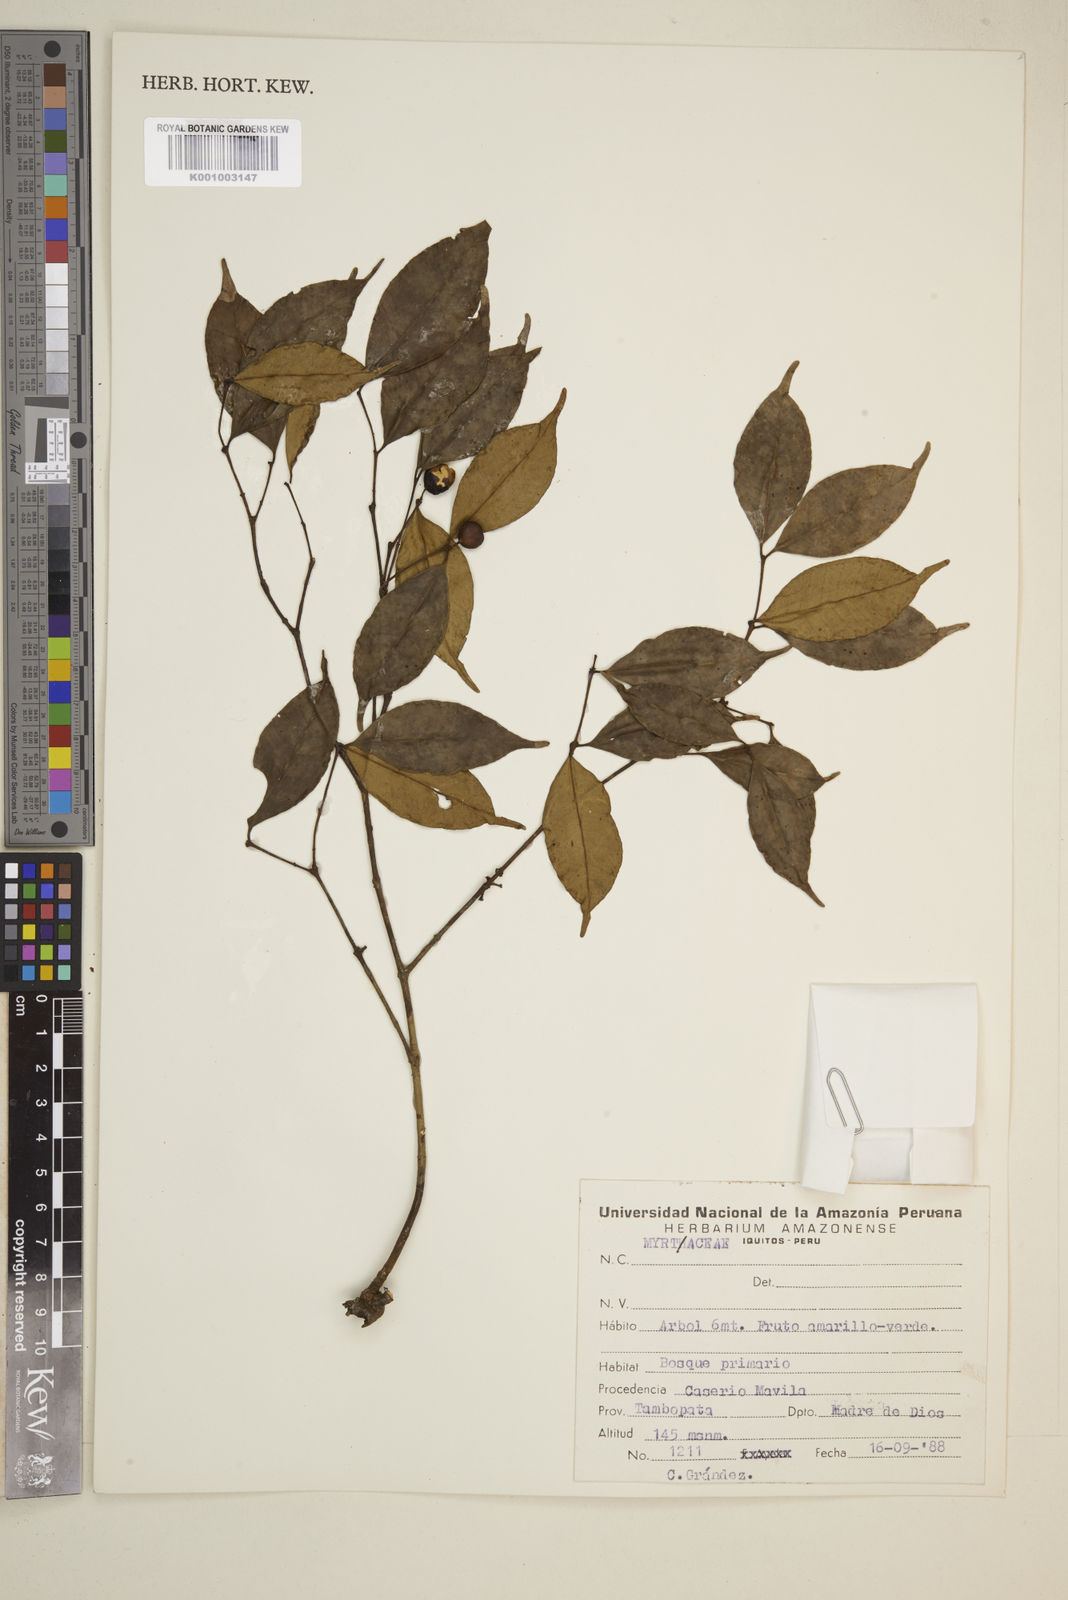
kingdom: Plantae
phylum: Tracheophyta
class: Magnoliopsida
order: Myrtales
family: Myrtaceae
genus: Eugenia
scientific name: Eugenia
